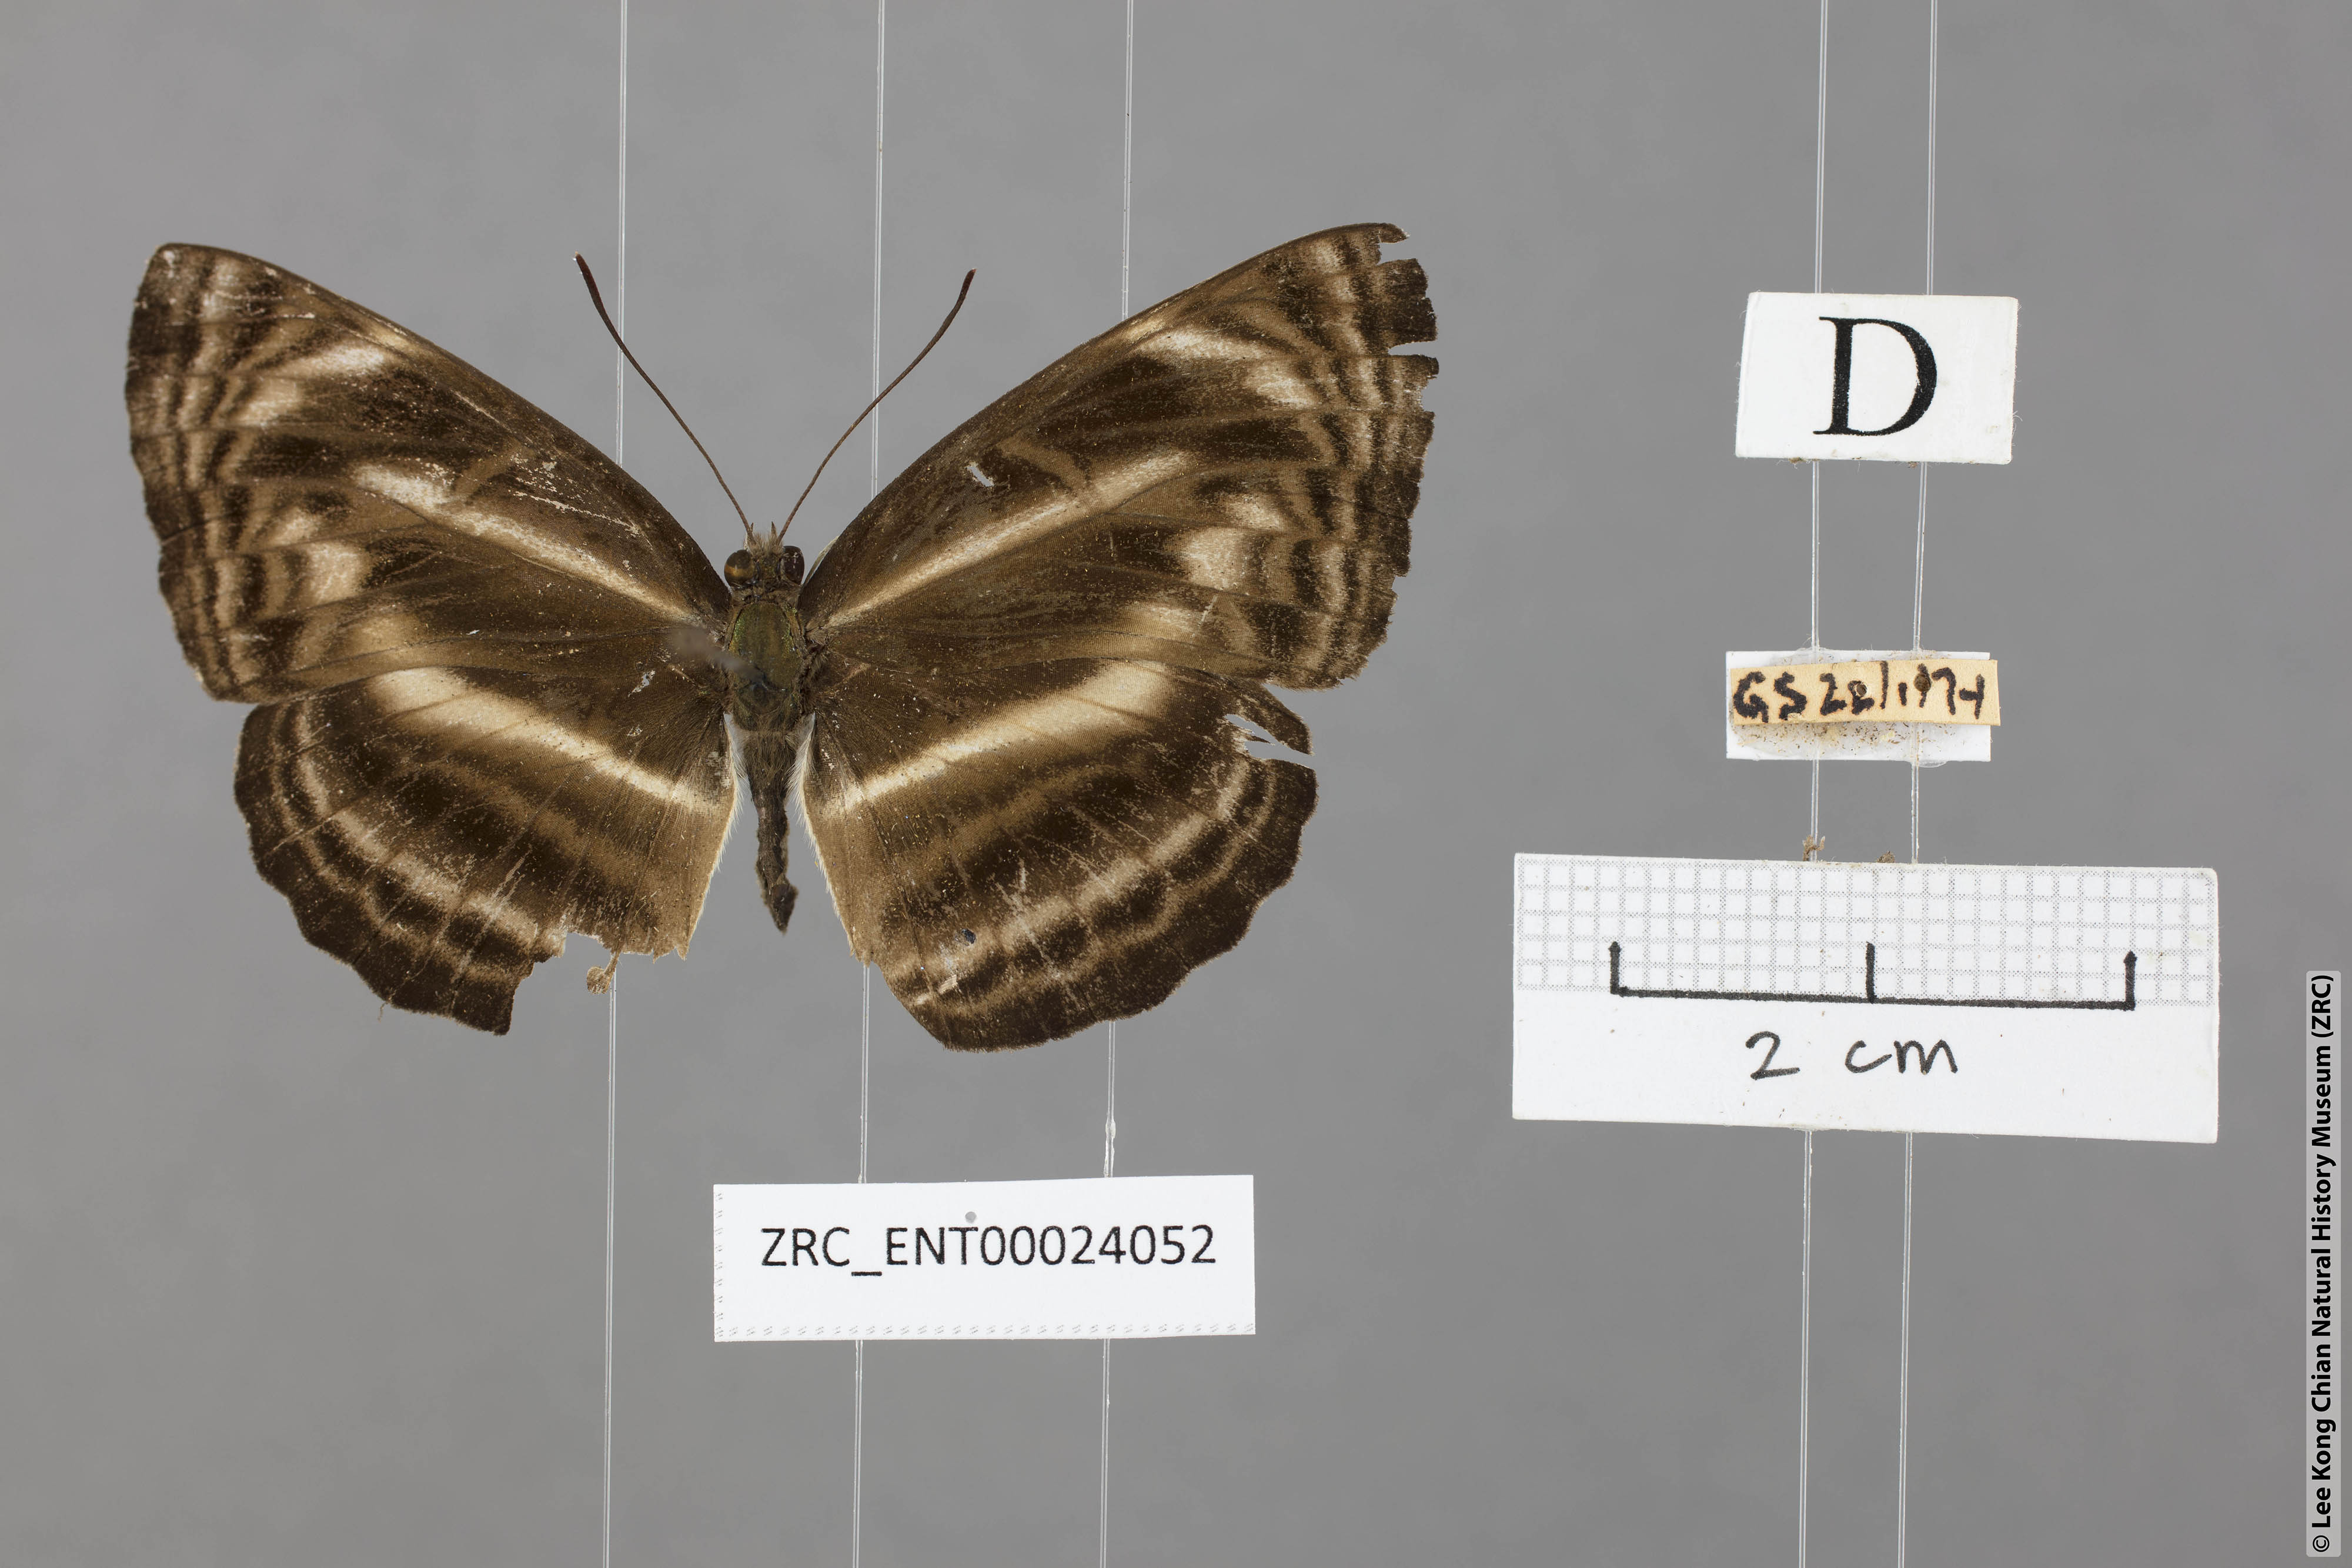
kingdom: Animalia
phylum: Arthropoda
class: Insecta
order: Lepidoptera
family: Nymphalidae
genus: Neptis
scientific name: Neptis omeroda
